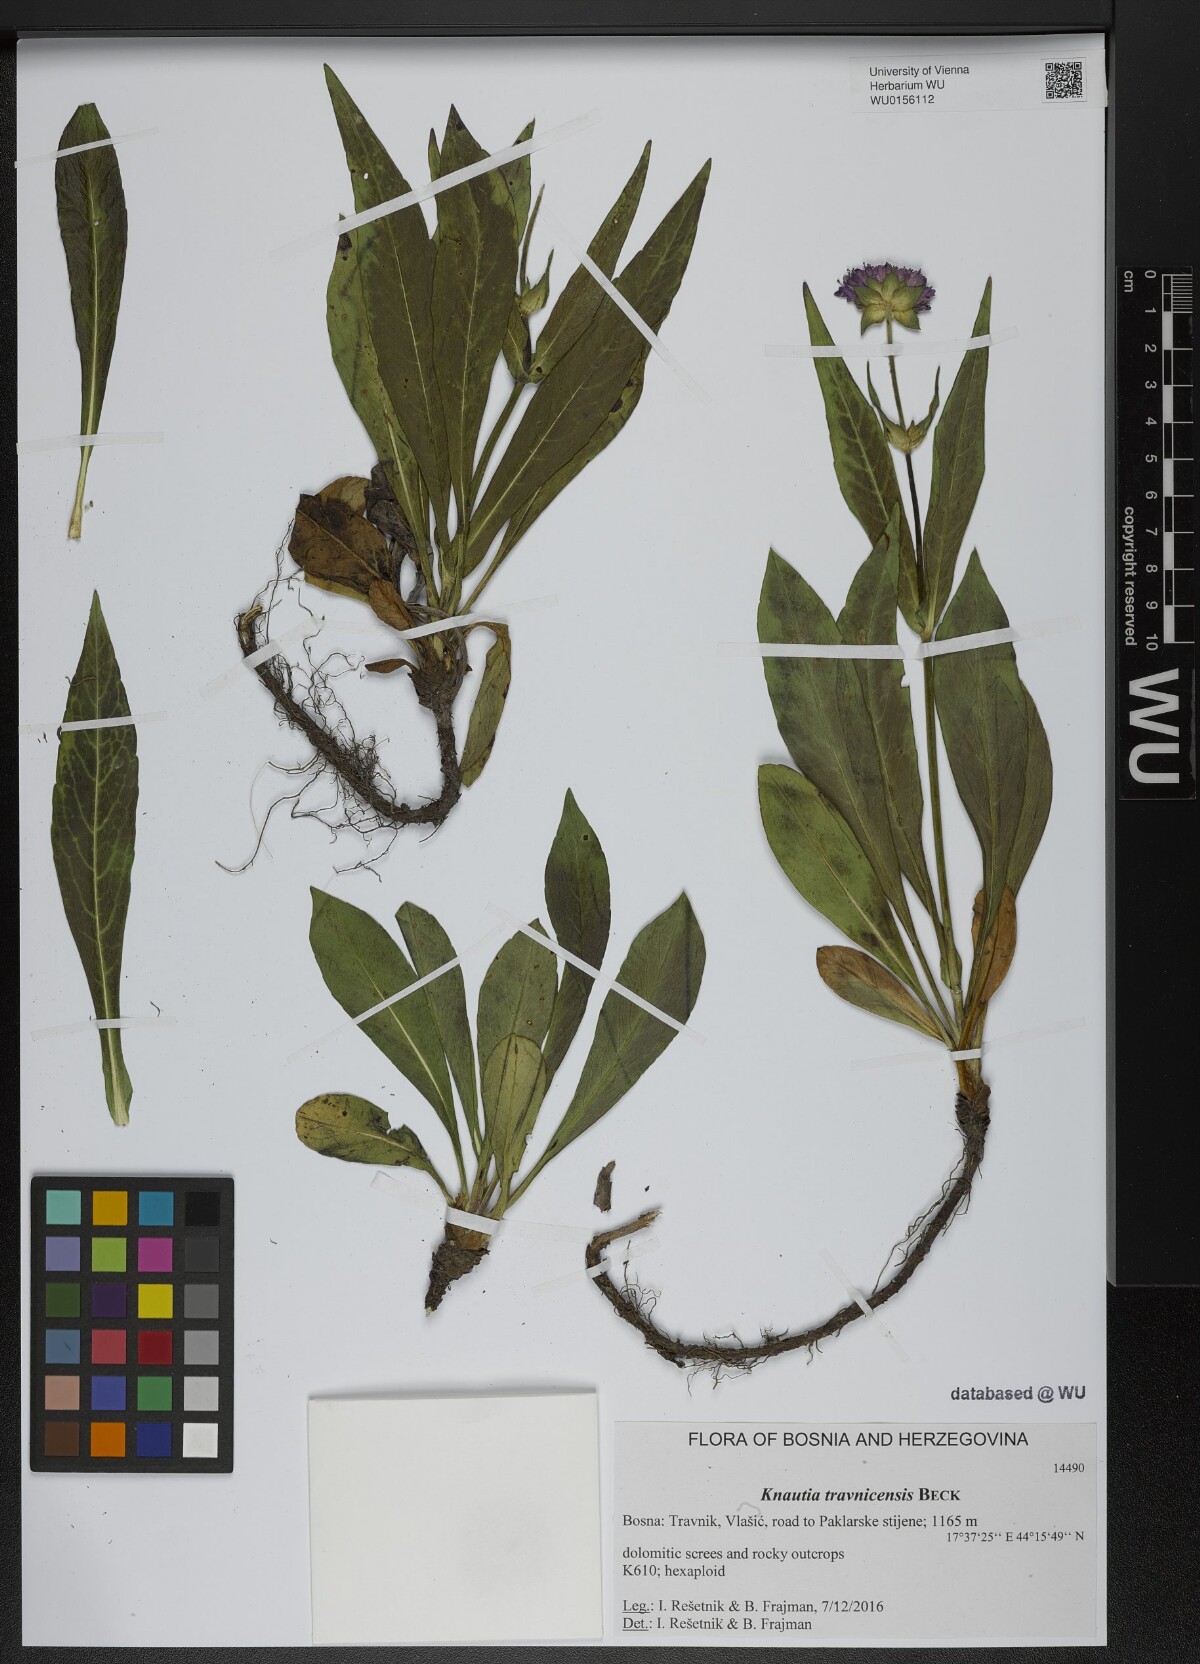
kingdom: Plantae
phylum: Tracheophyta
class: Magnoliopsida
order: Dipsacales
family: Caprifoliaceae
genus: Knautia
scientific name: Knautia travnicensis
